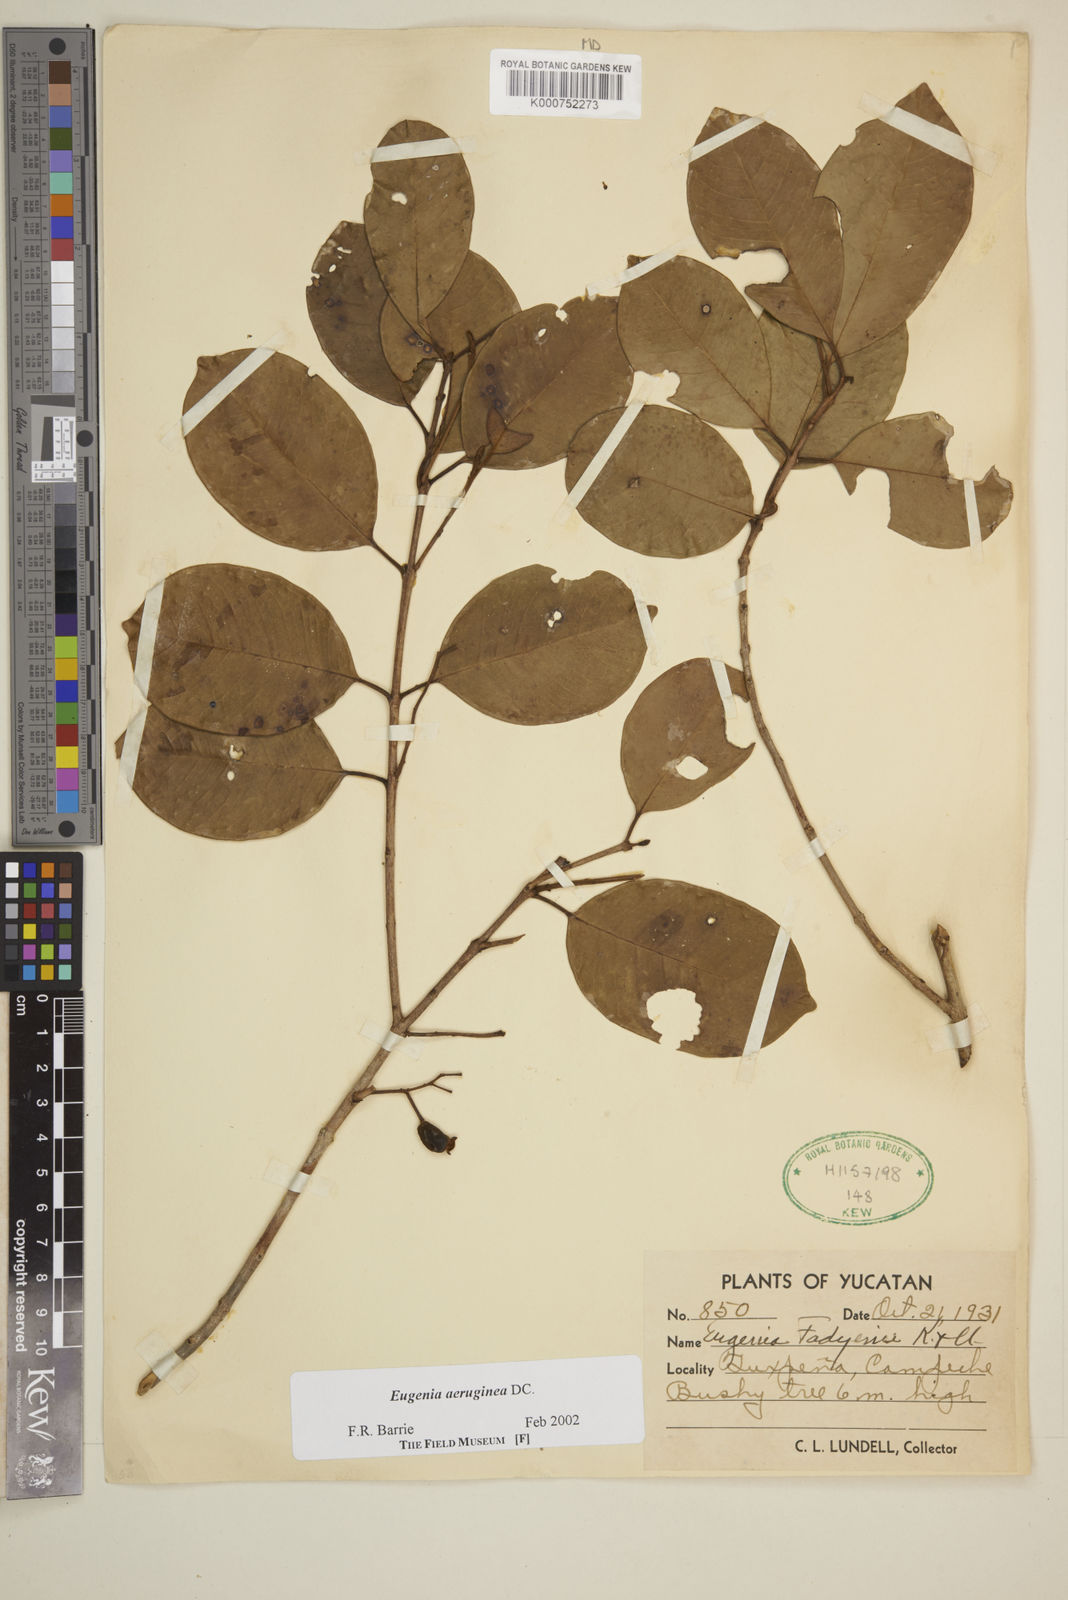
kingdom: Plantae
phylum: Tracheophyta
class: Magnoliopsida
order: Myrtales
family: Myrtaceae
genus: Eugenia
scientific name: Eugenia aeruginea
